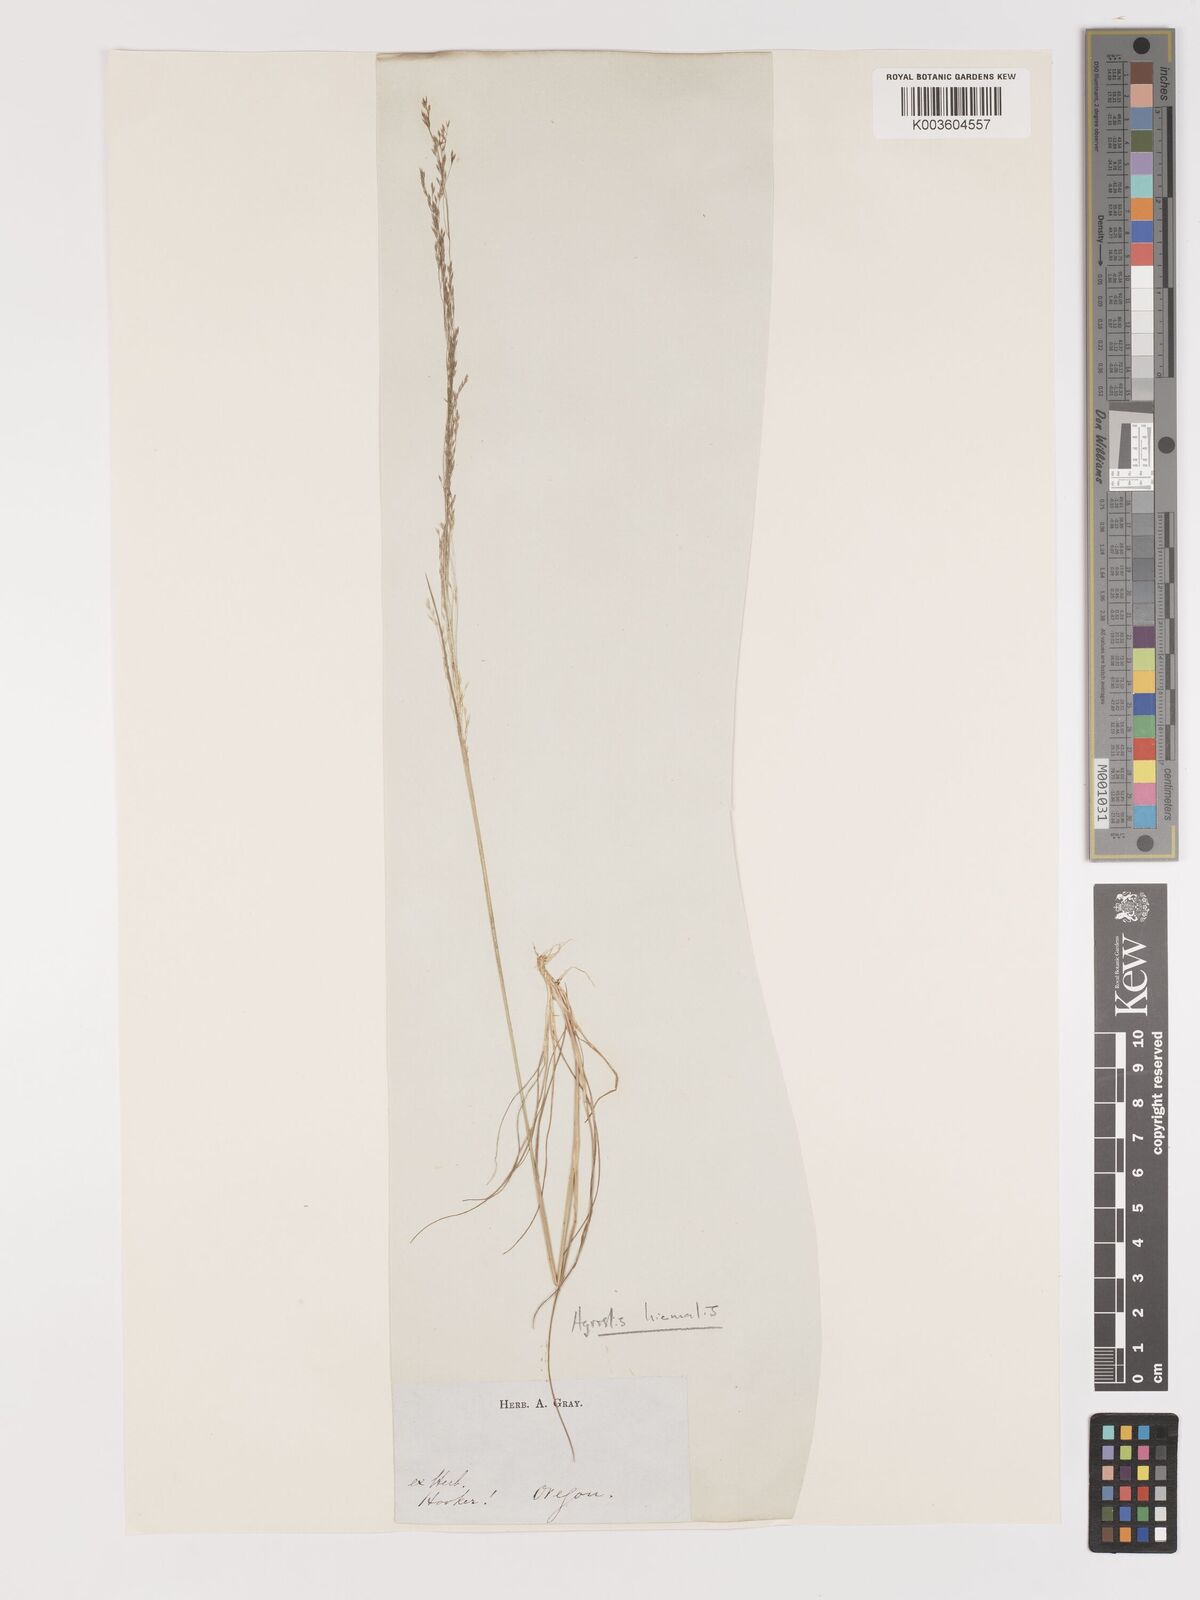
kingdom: Plantae
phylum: Tracheophyta
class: Liliopsida
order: Poales
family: Poaceae
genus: Agrostis
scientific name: Agrostis hyemalis
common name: Small bent
